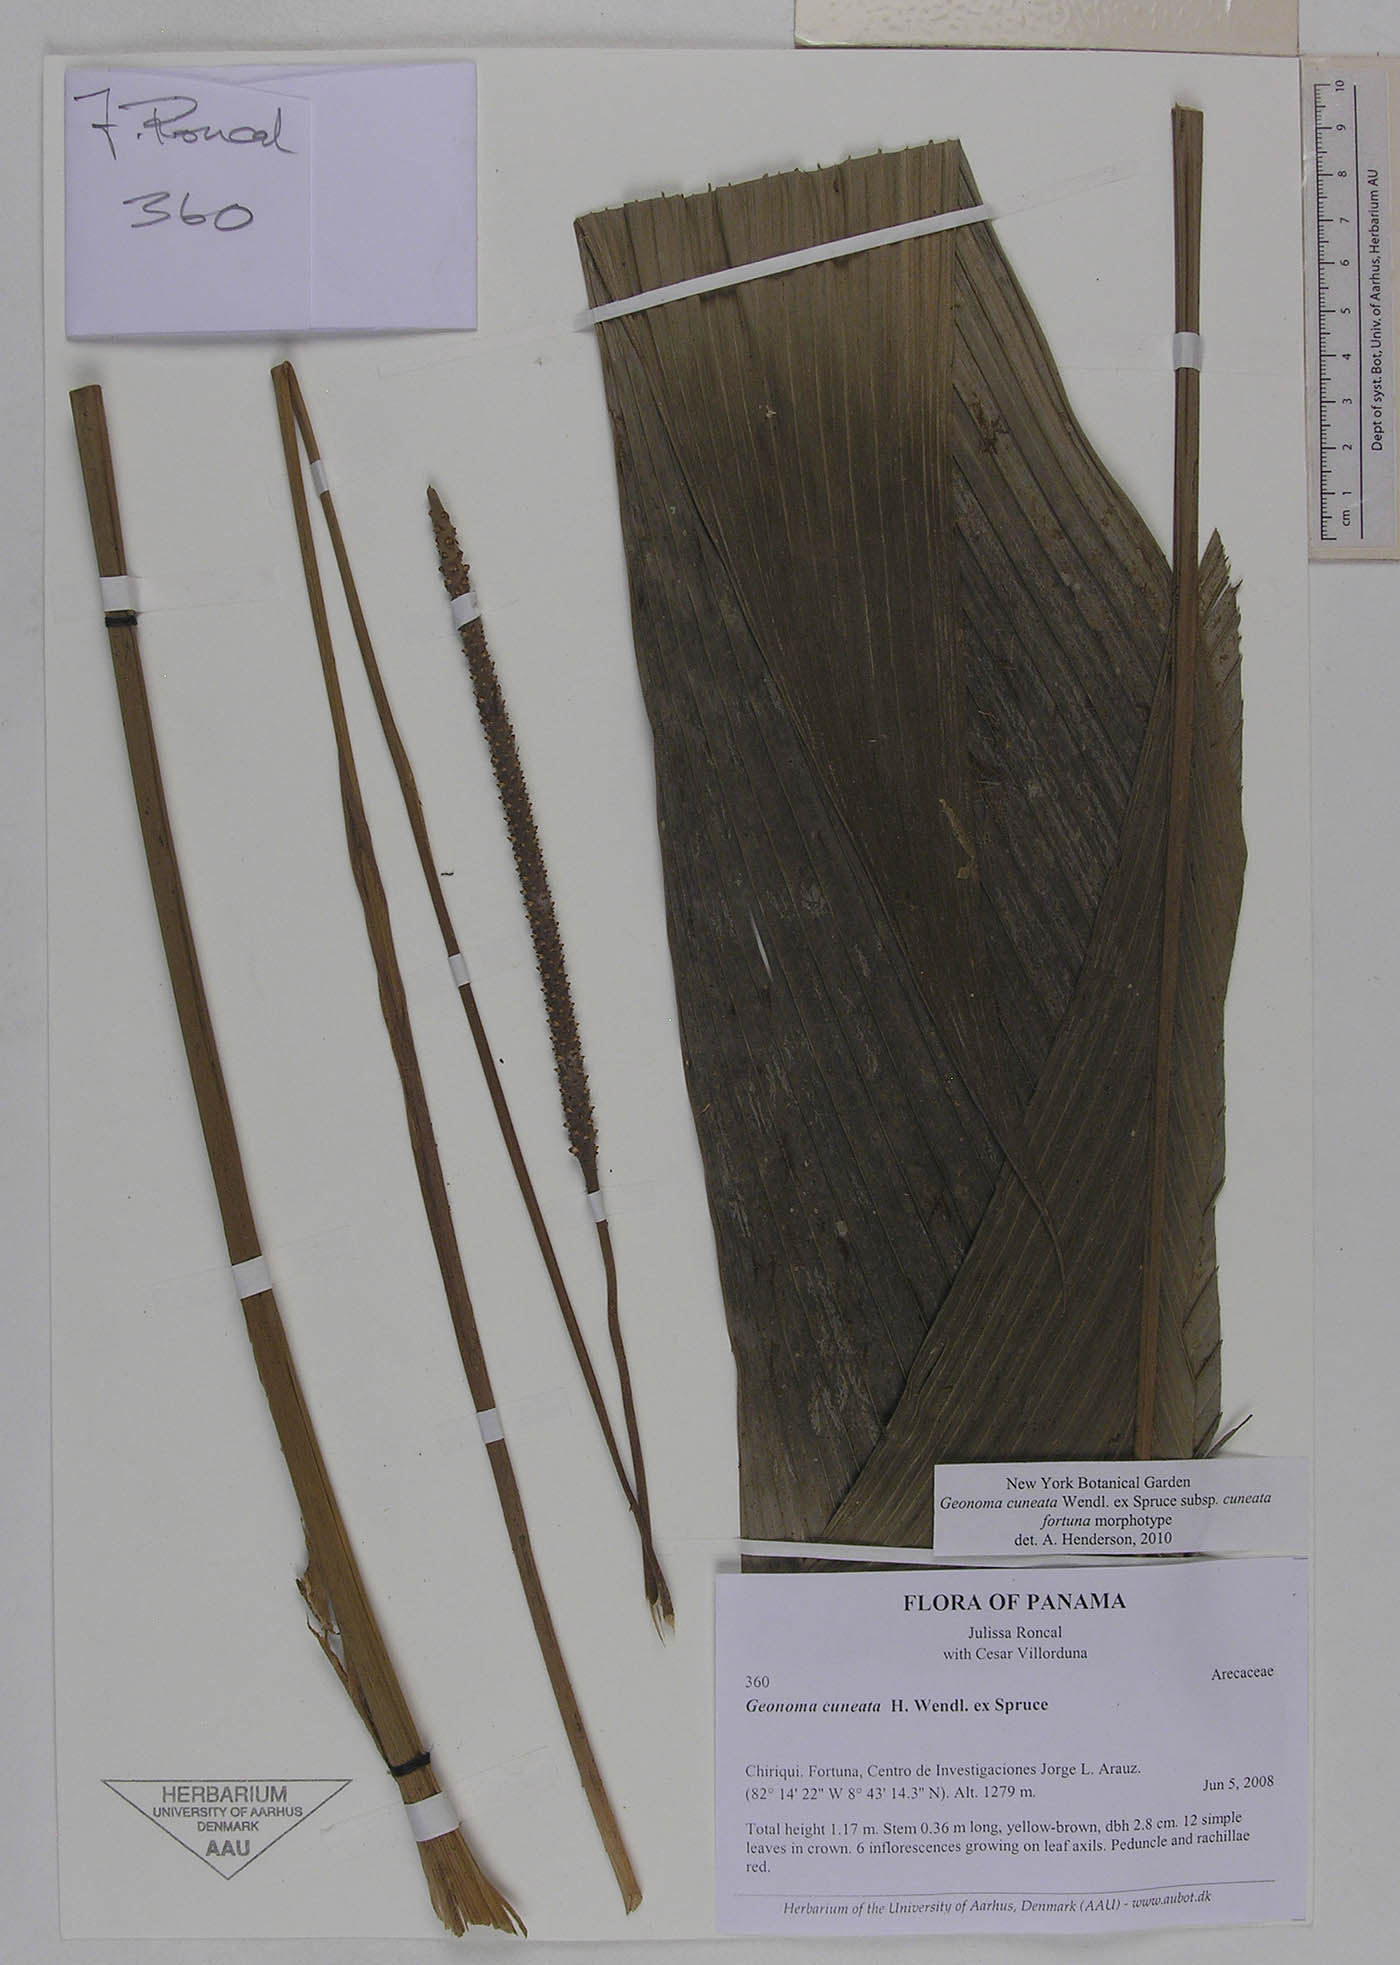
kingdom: Plantae
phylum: Tracheophyta
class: Liliopsida
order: Arecales
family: Arecaceae
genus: Geonoma
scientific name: Geonoma cuneata
